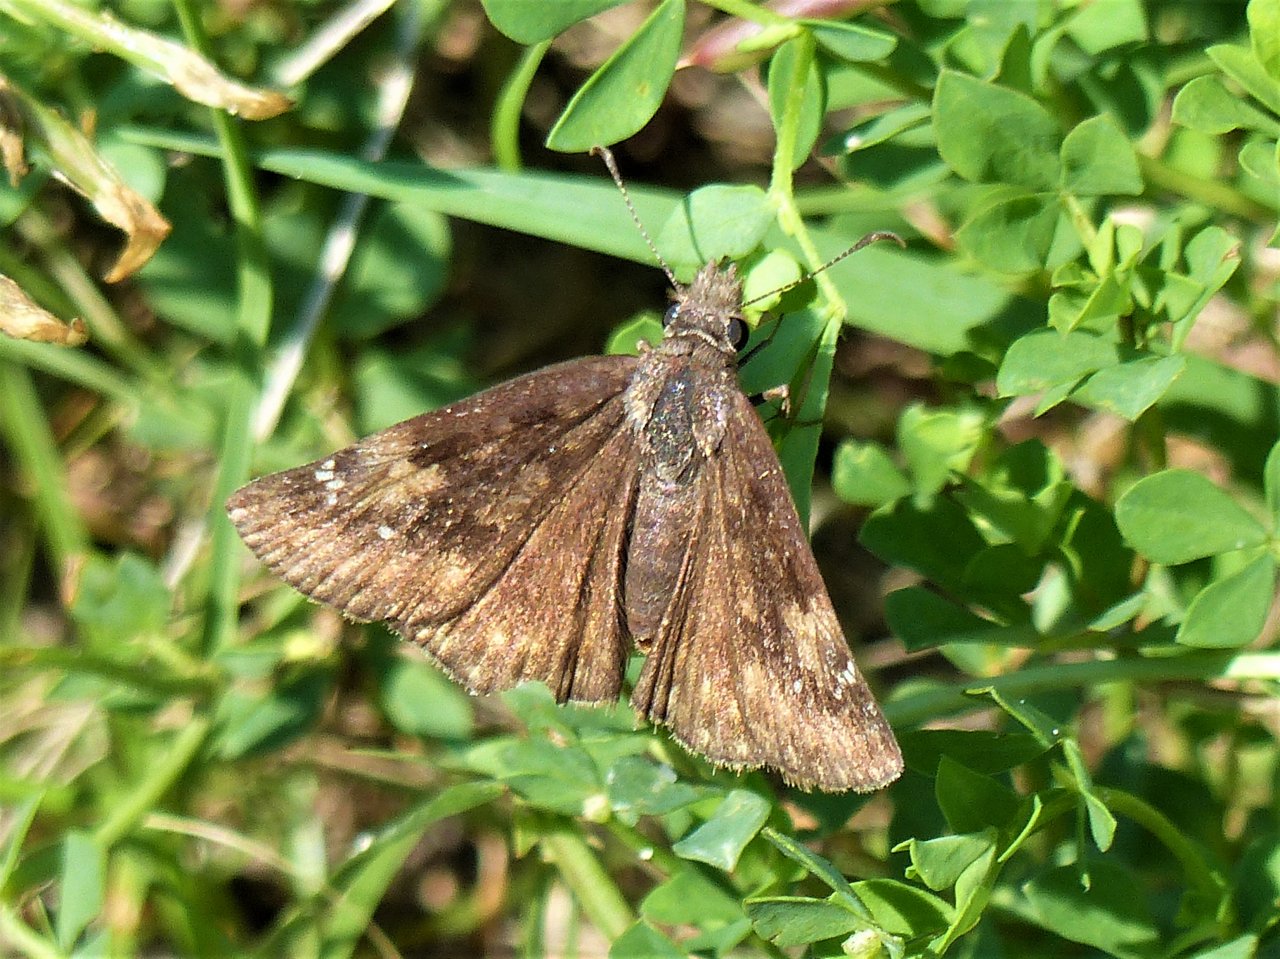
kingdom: Animalia
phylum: Arthropoda
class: Insecta
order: Lepidoptera
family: Hesperiidae
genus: Gesta
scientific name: Gesta
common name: Wild Indigo Duskywing
